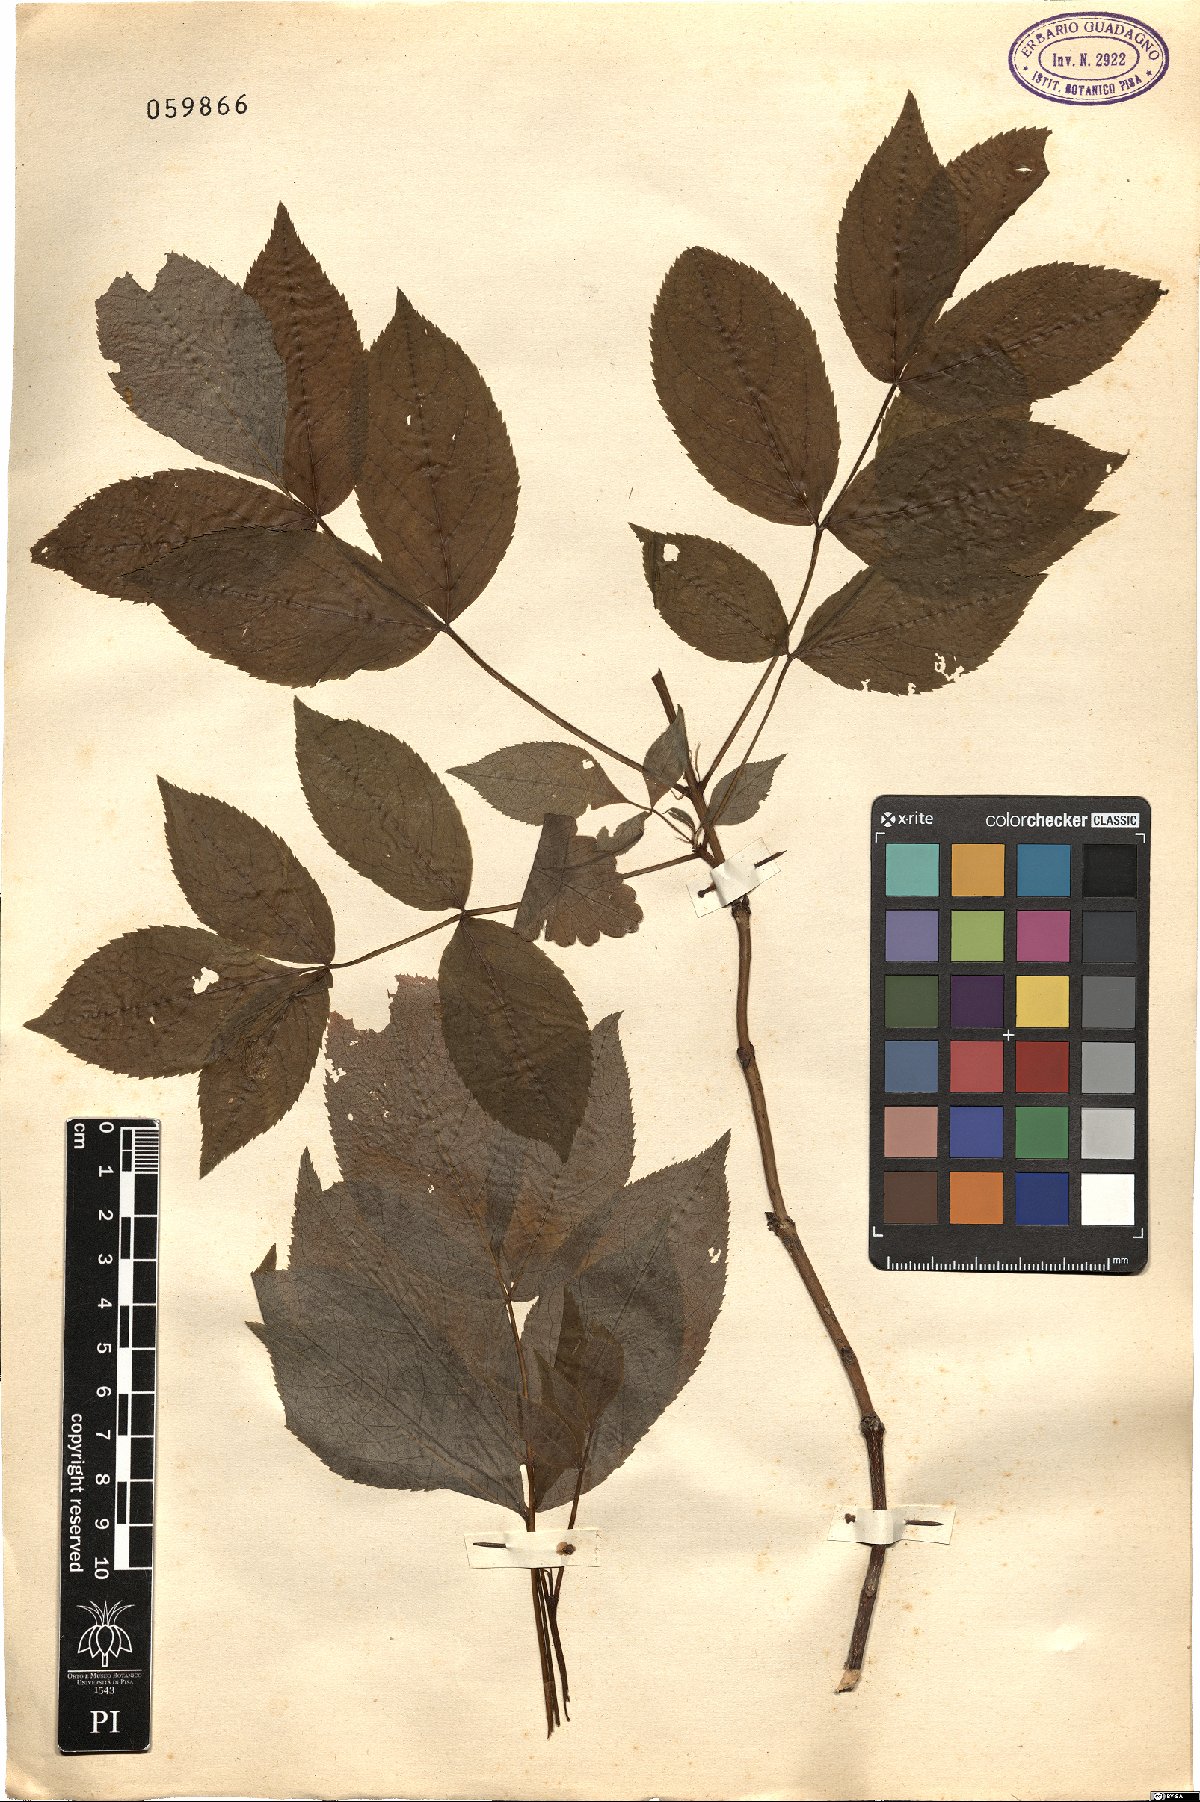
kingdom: Plantae
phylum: Tracheophyta
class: Magnoliopsida
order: Crossosomatales
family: Staphyleaceae
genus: Staphylea
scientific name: Staphylea pinnata
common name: Bladdernut
